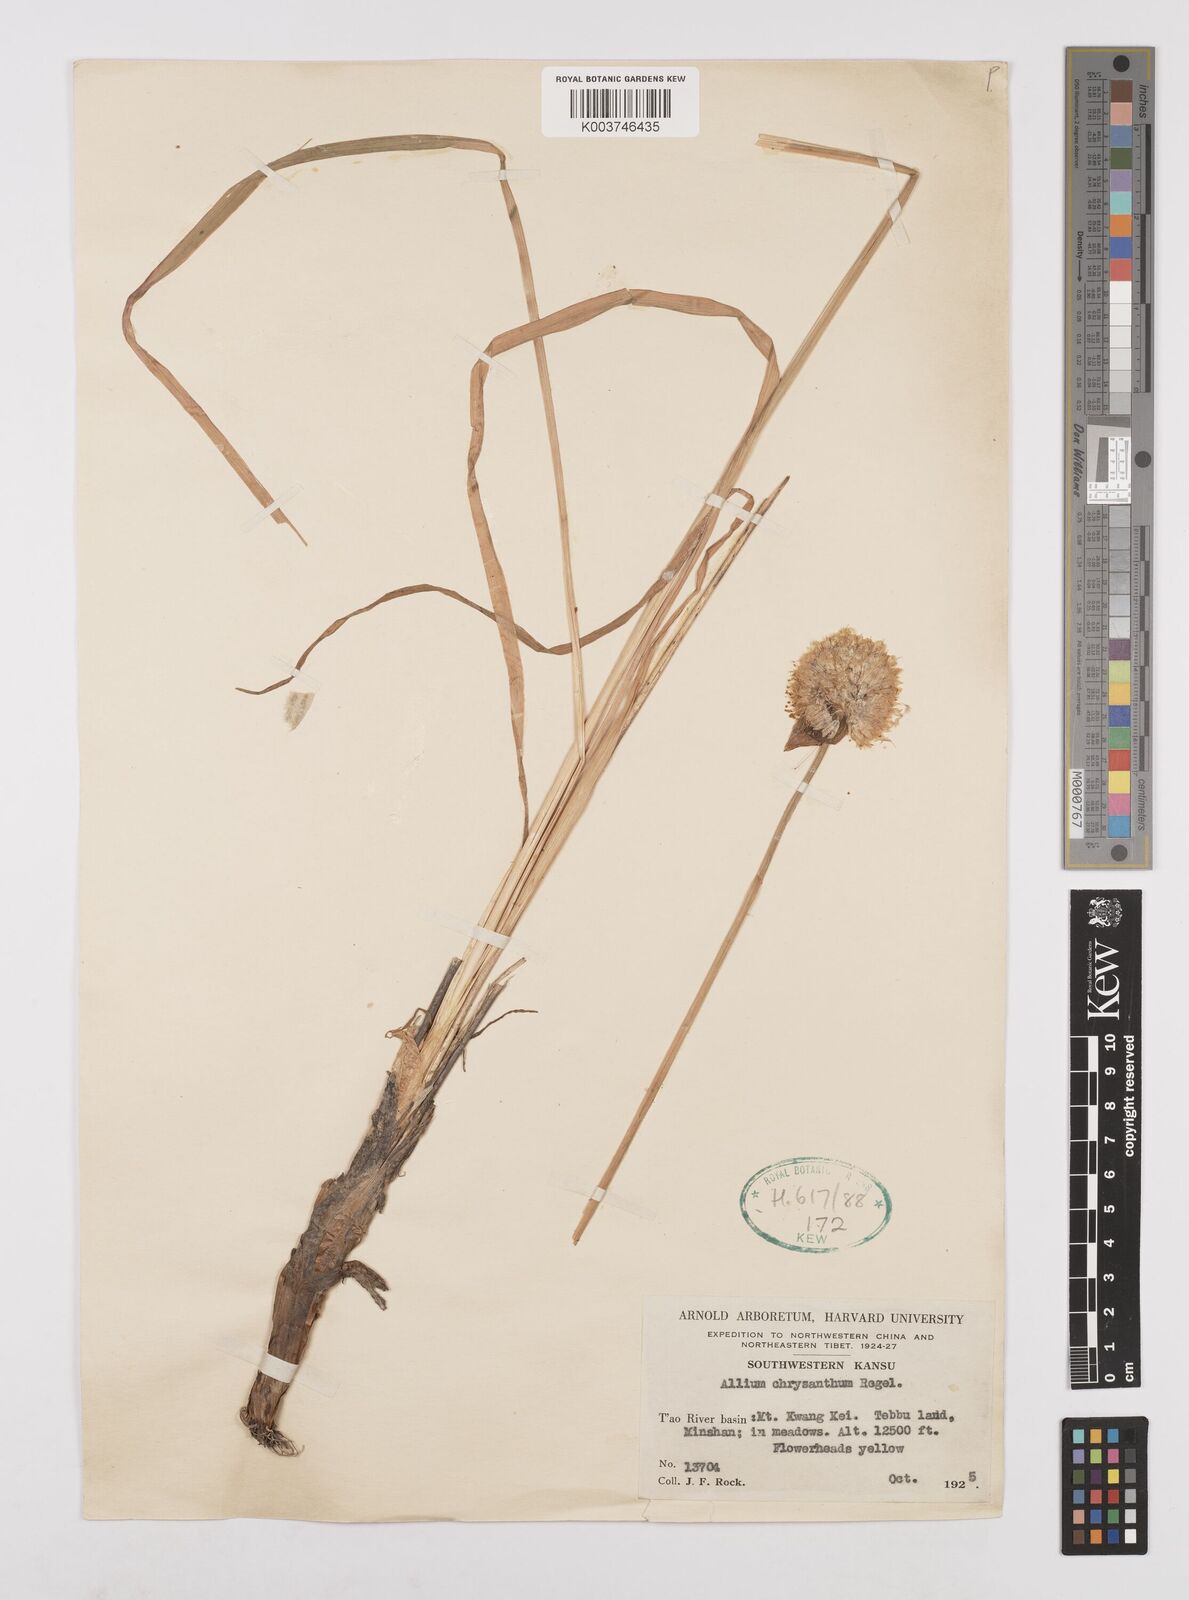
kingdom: Plantae
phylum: Tracheophyta
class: Liliopsida
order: Asparagales
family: Amaryllidaceae
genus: Allium
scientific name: Allium chrysanthum
